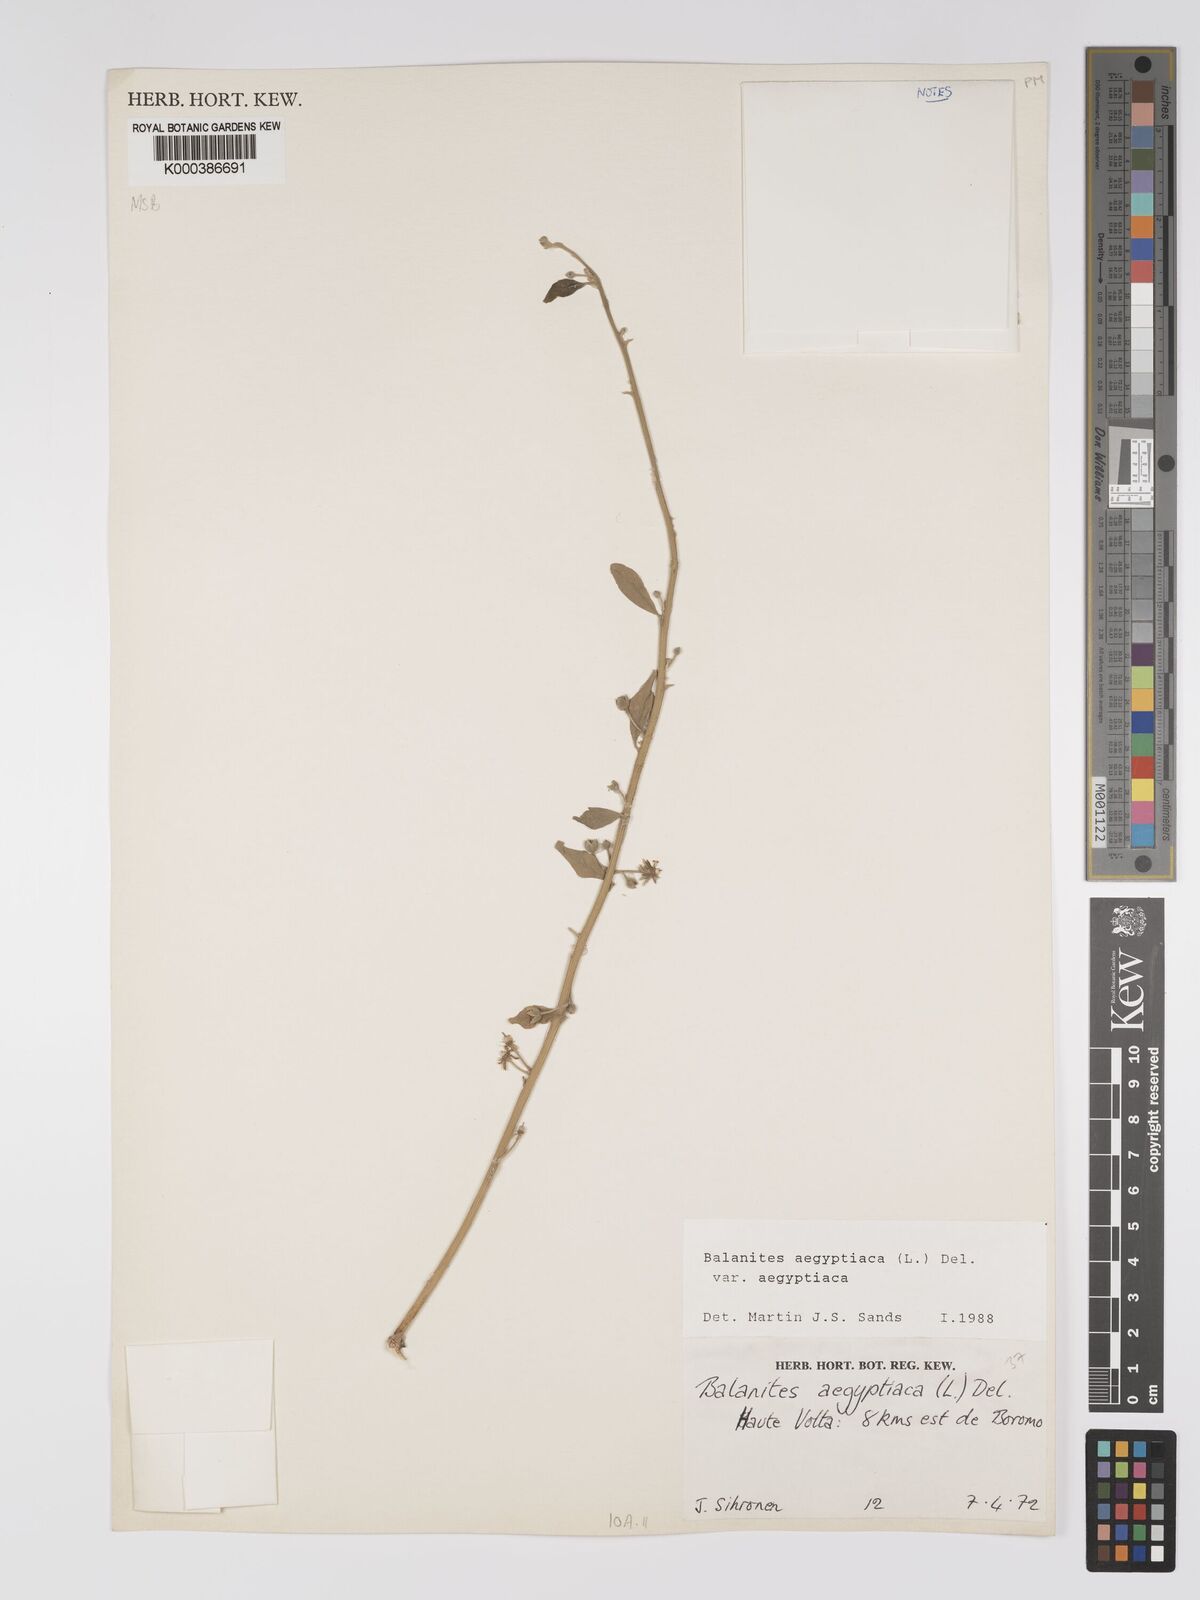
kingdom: Plantae
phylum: Tracheophyta
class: Magnoliopsida
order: Zygophyllales
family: Zygophyllaceae
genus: Balanites
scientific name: Balanites aegyptiaca
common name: Balanites
